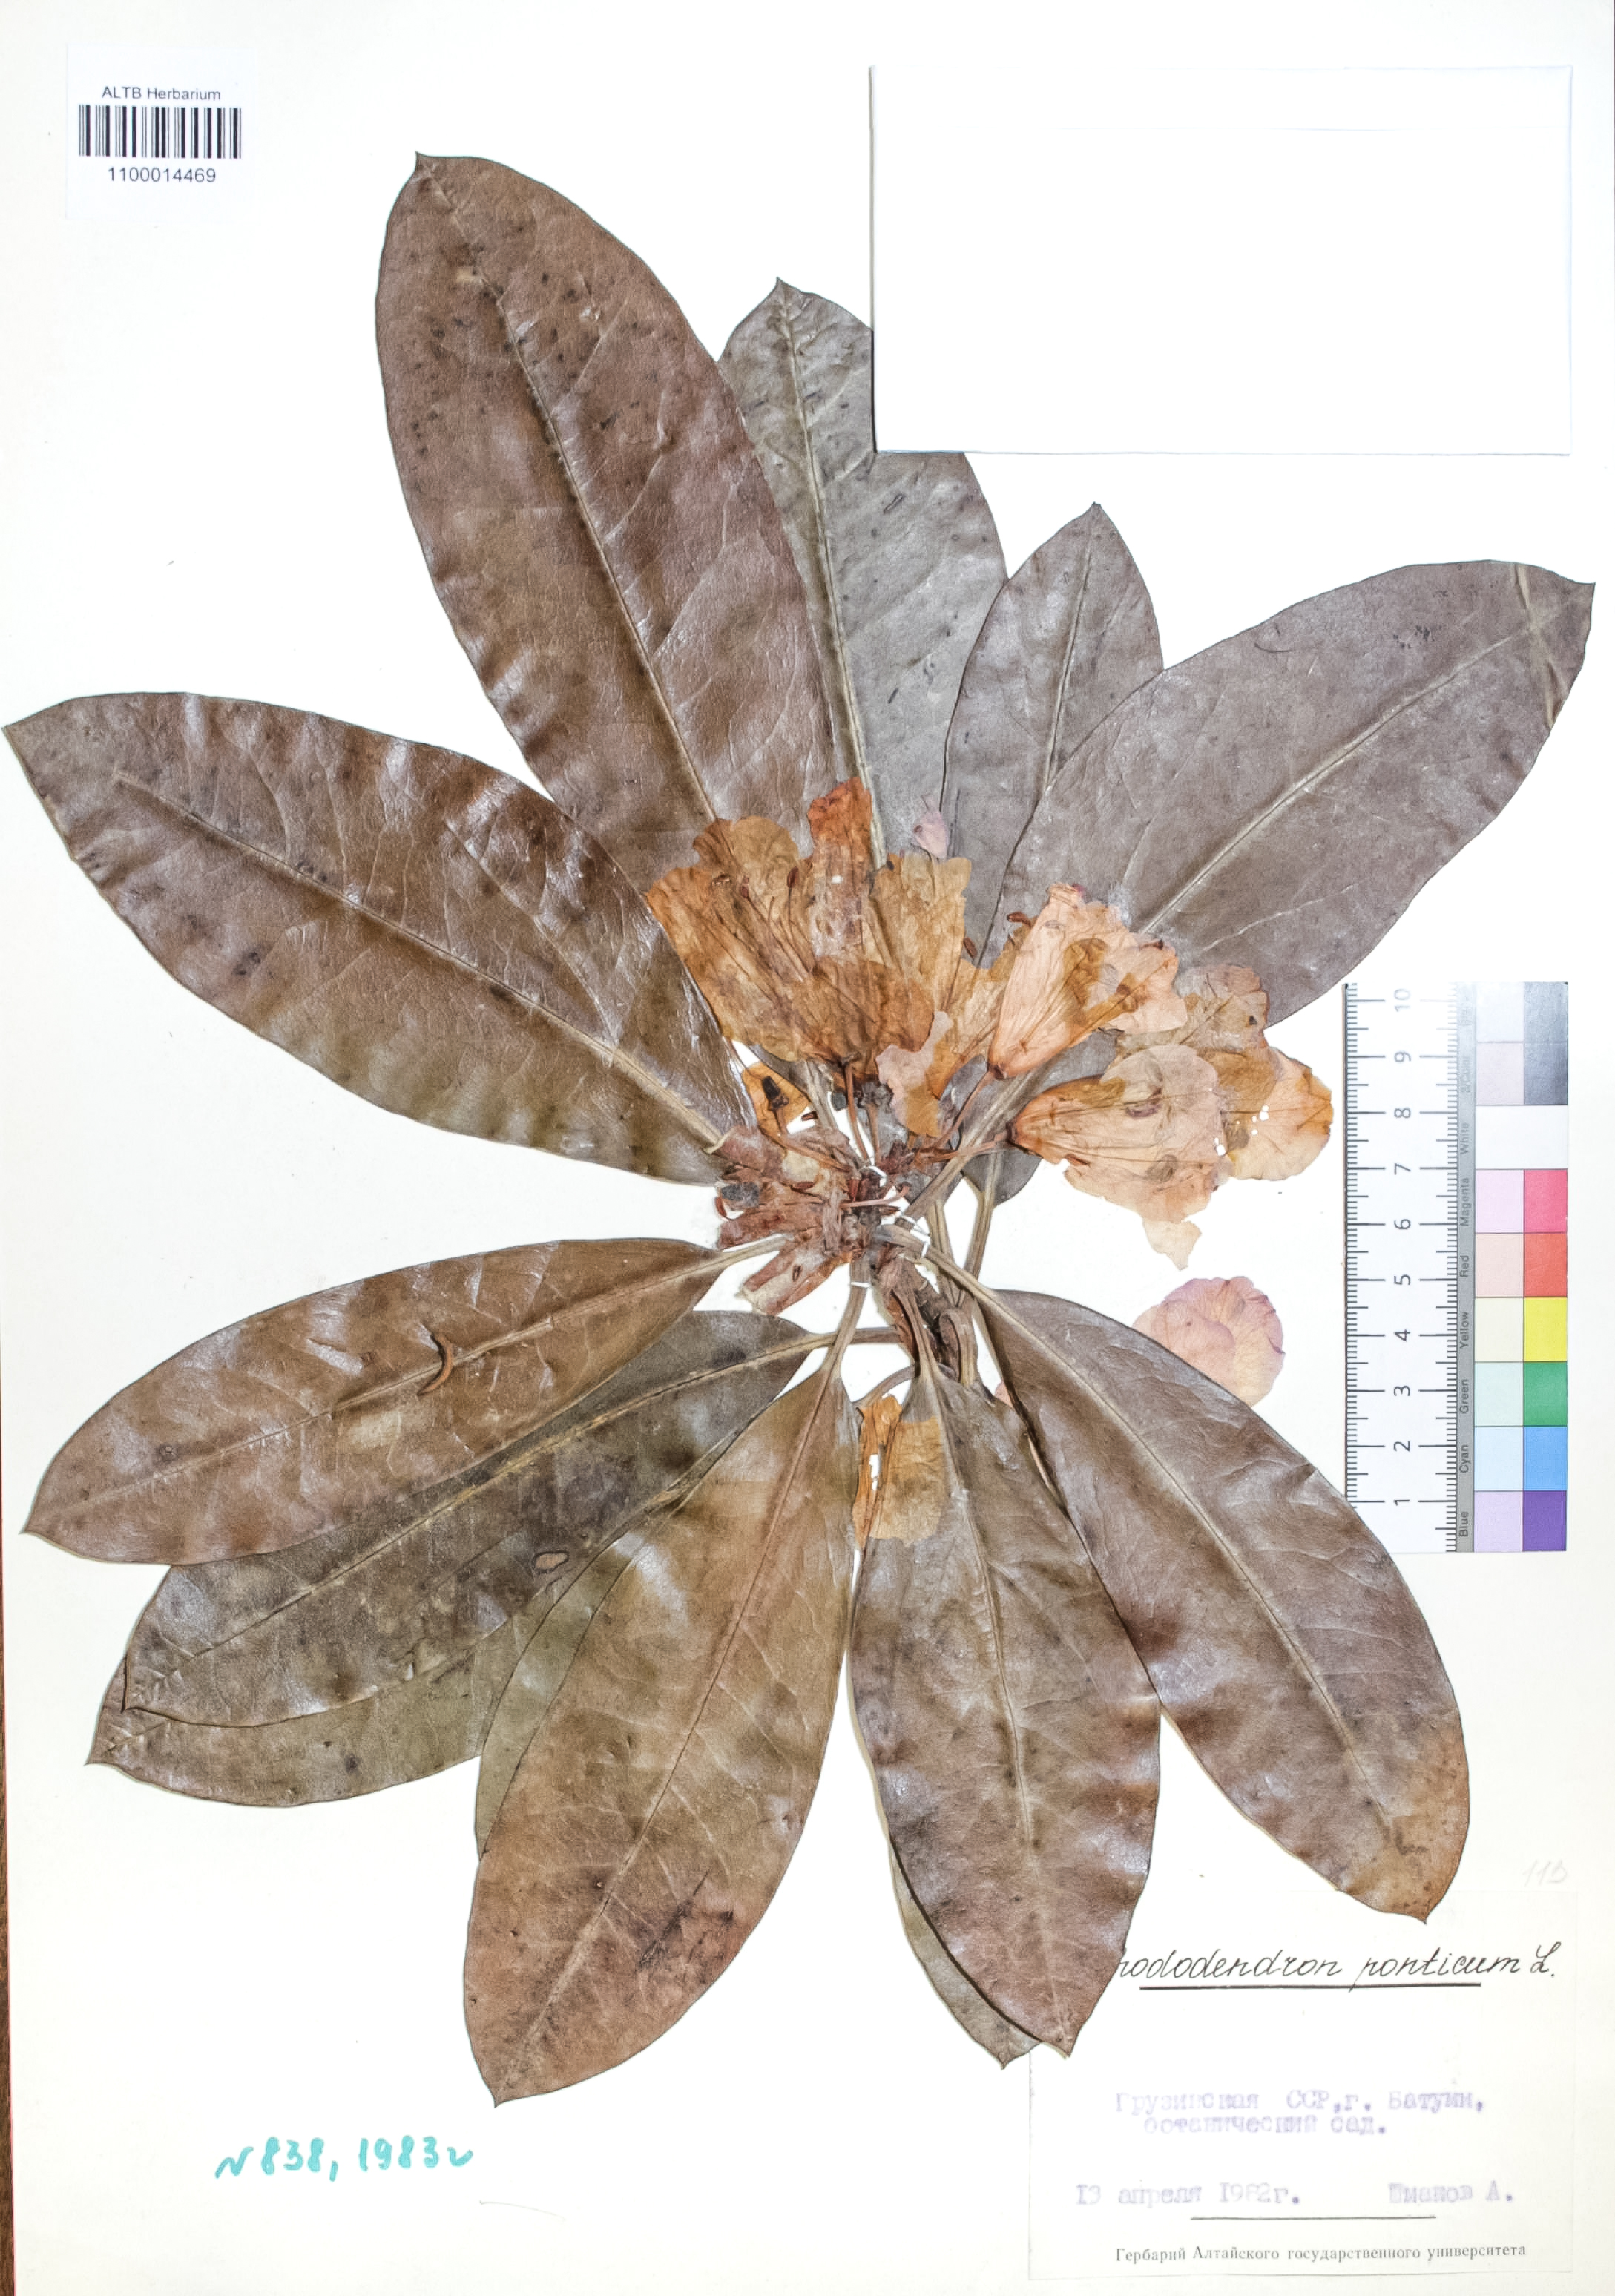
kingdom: Plantae
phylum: Tracheophyta
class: Magnoliopsida
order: Ericales
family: Ericaceae
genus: Rhododendron
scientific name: Rhododendron ponticum
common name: Rhododendron
